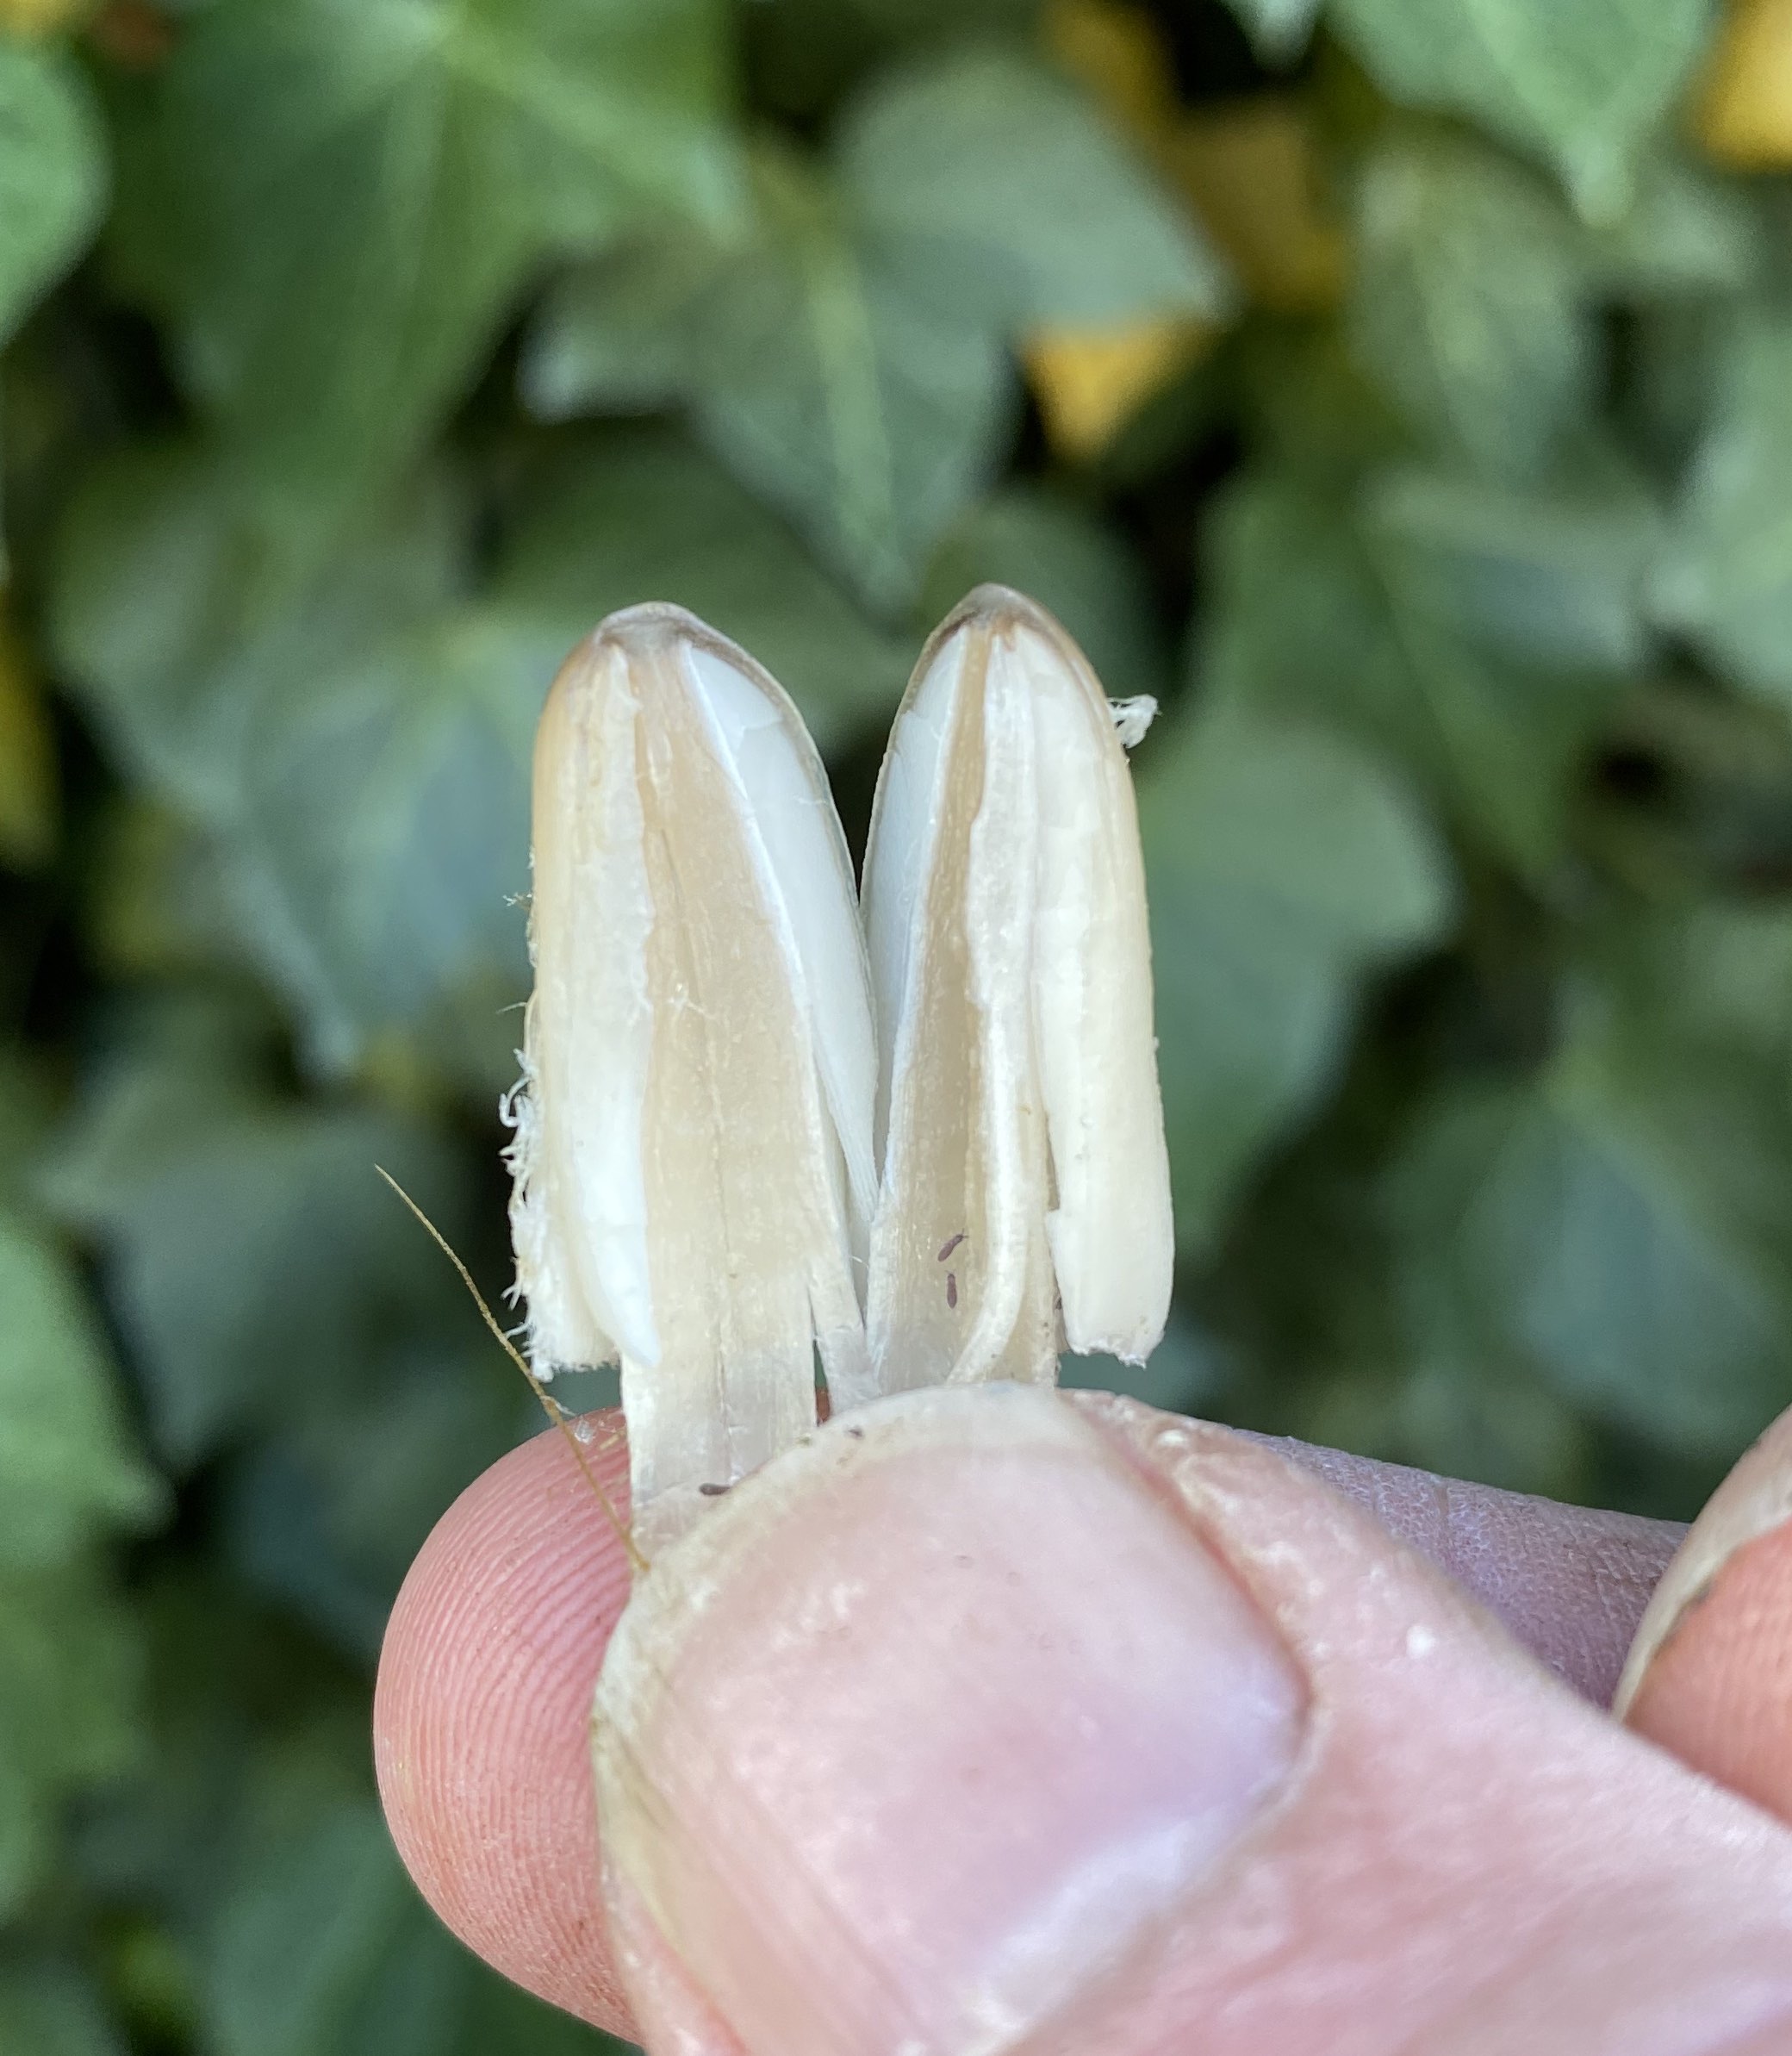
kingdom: Fungi
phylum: Basidiomycota
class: Agaricomycetes
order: Agaricales
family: Psathyrellaceae
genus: Coprinopsis
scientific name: Coprinopsis
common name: blækhat
